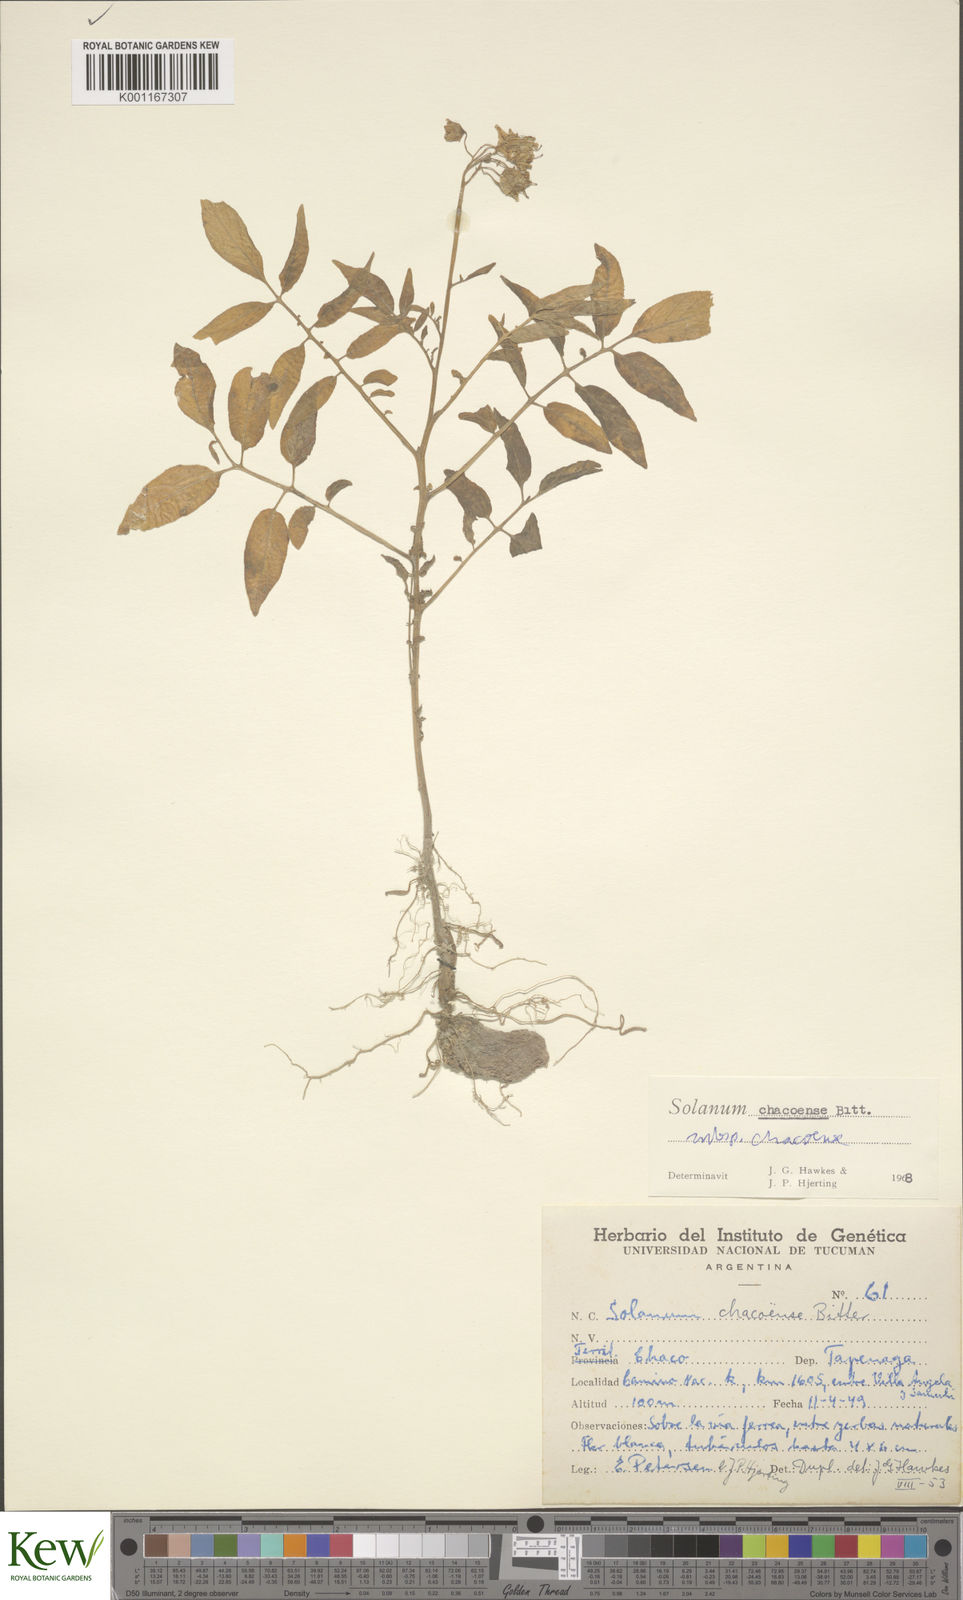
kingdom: Plantae
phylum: Tracheophyta
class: Magnoliopsida
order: Solanales
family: Solanaceae
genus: Solanum
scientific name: Solanum chacoense
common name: Chaco potato
